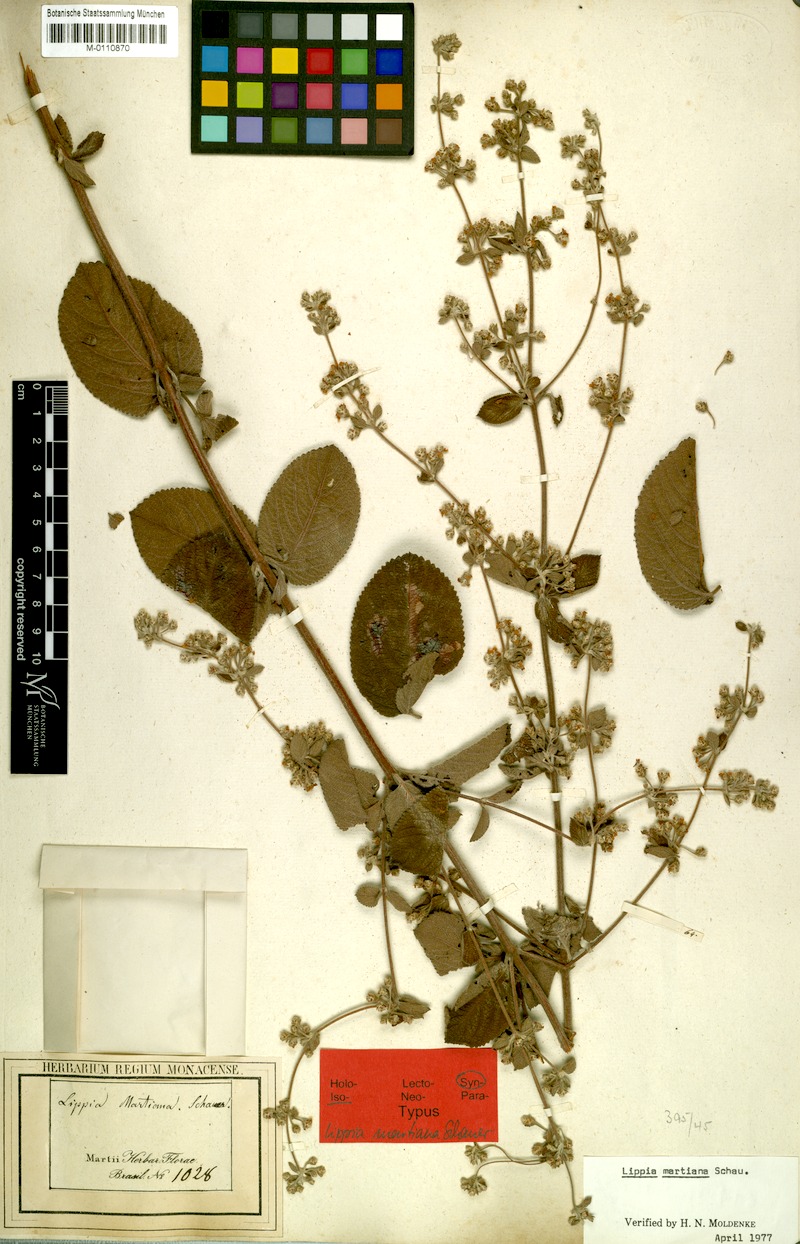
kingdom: Plantae
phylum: Tracheophyta
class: Magnoliopsida
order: Lamiales
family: Verbenaceae
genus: Lippia
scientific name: Lippia martiana
